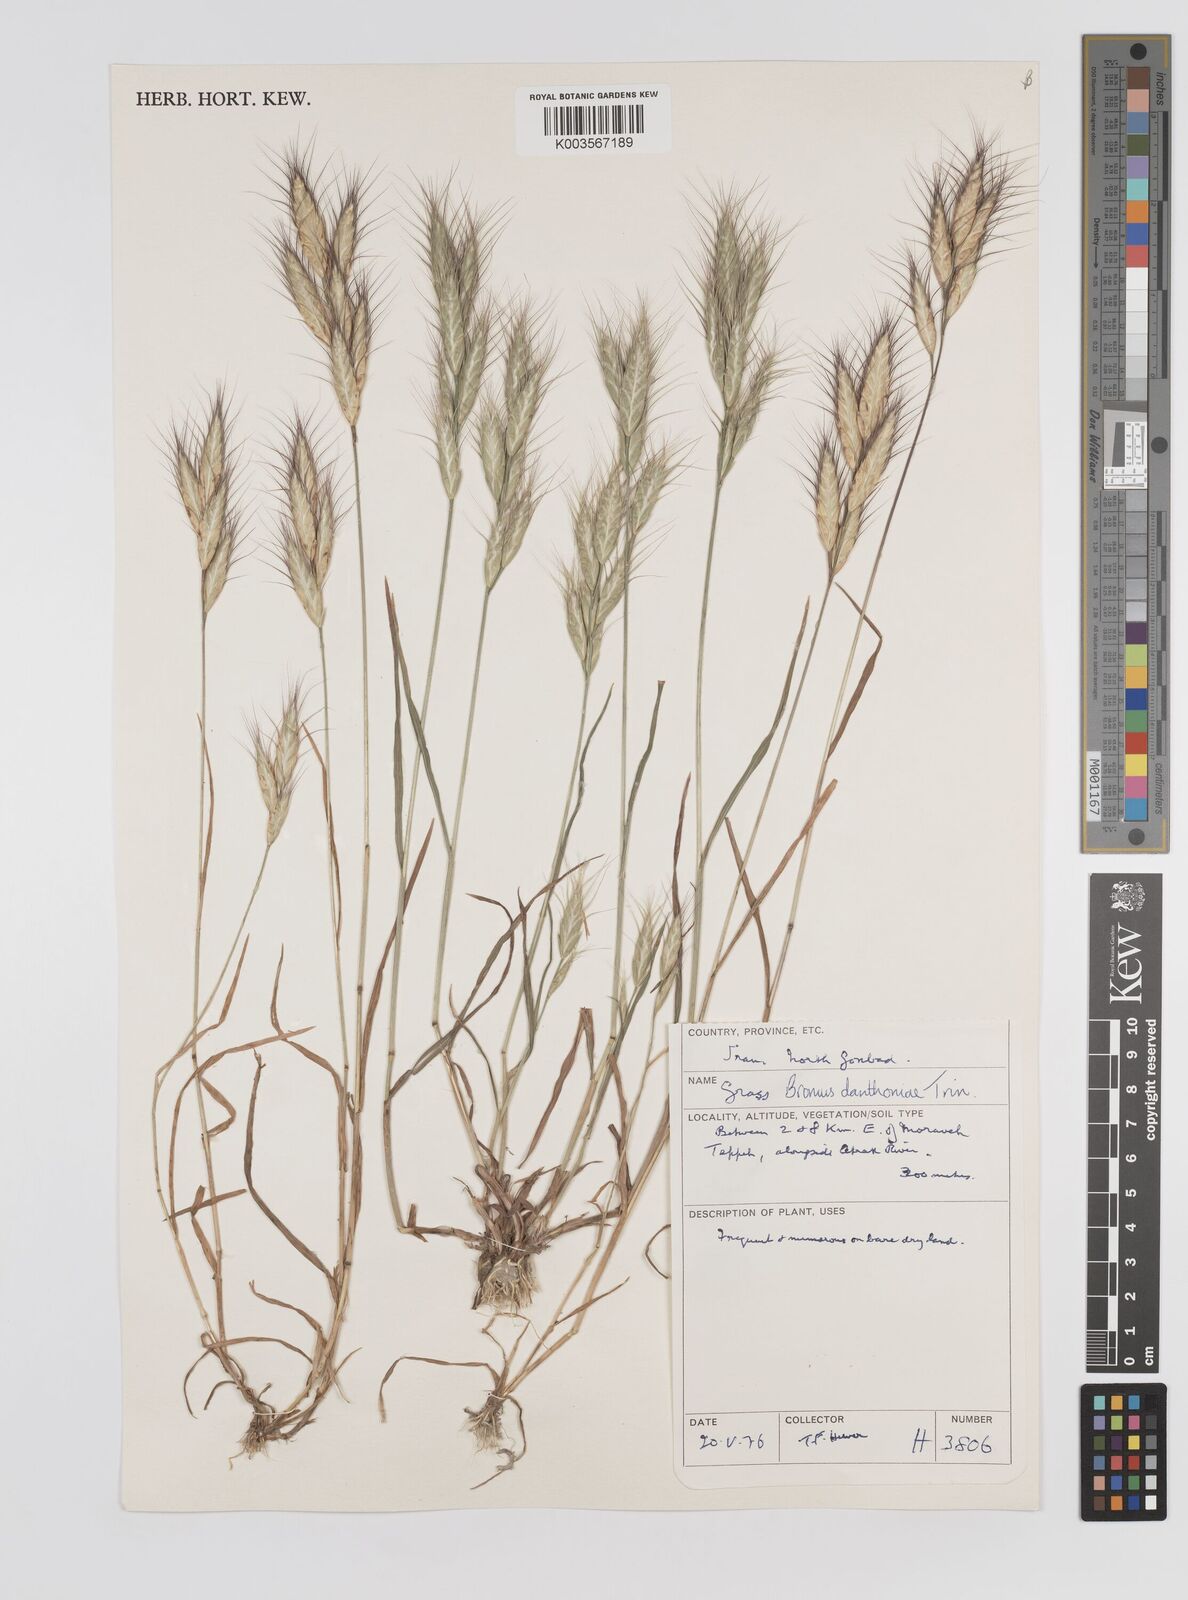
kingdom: Plantae
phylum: Tracheophyta
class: Liliopsida
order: Poales
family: Poaceae
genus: Bromus
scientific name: Bromus danthoniae
